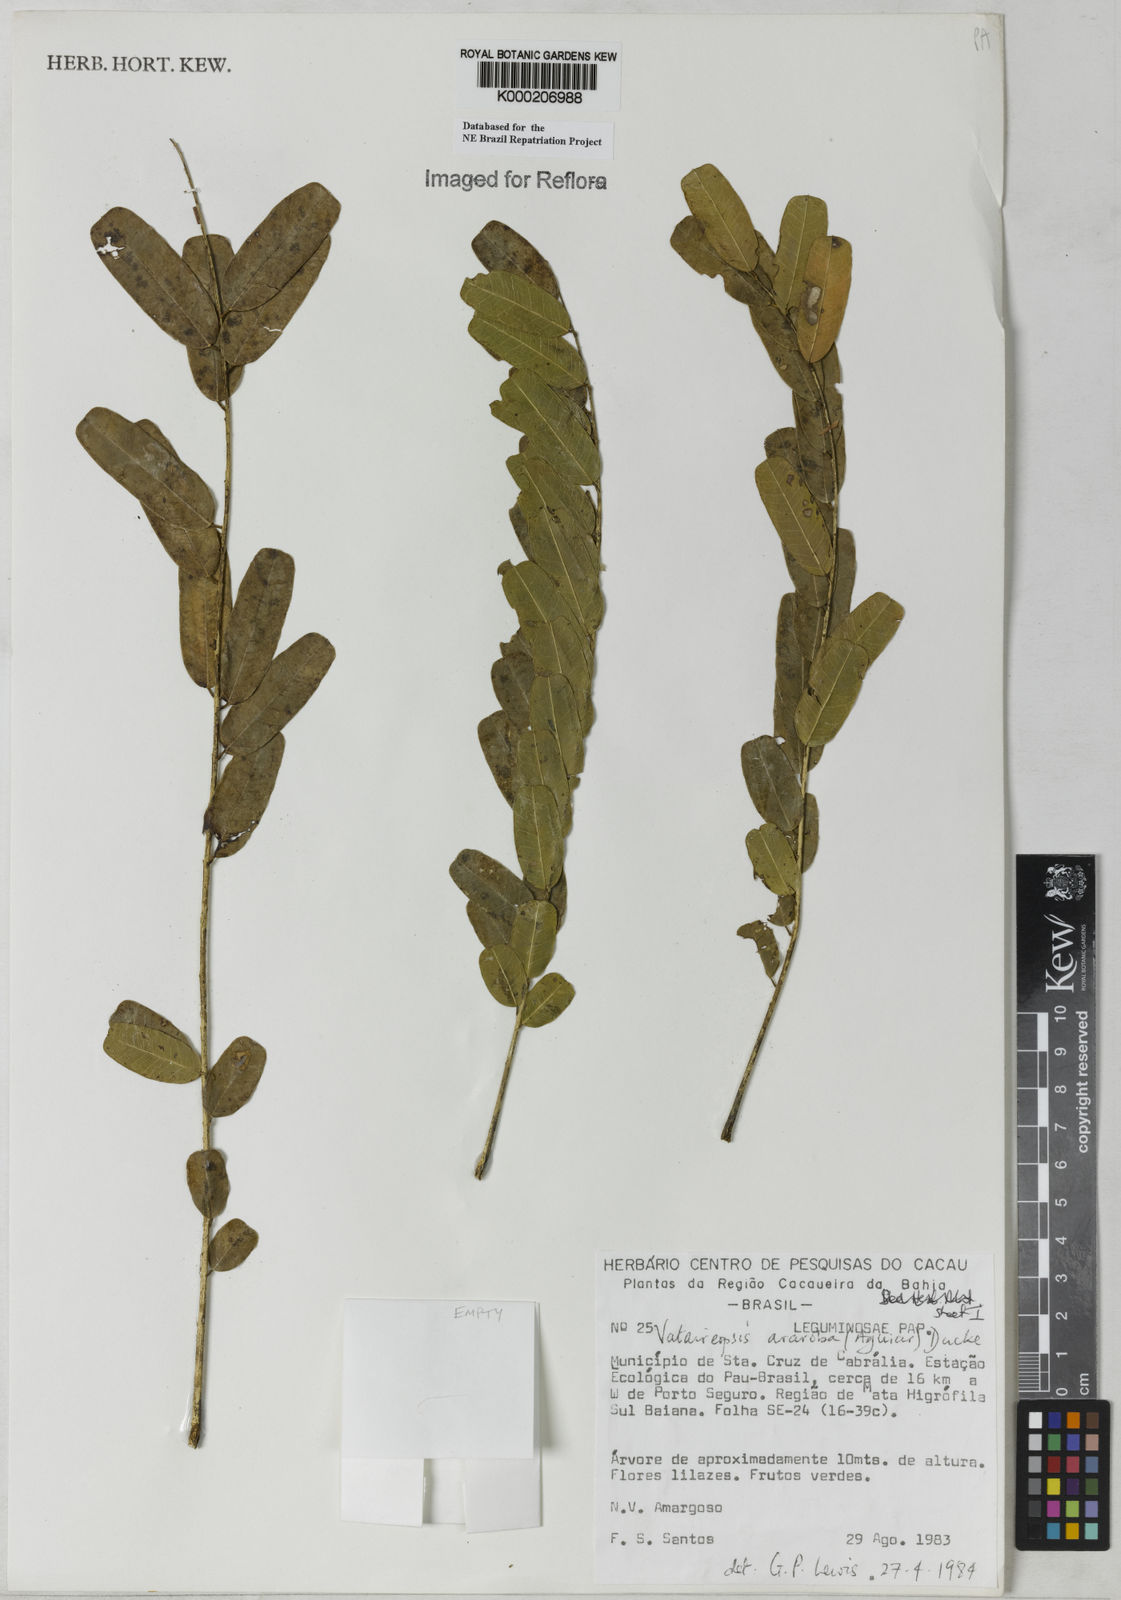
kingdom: Plantae
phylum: Tracheophyta
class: Magnoliopsida
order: Fabales
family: Fabaceae
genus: Vataireopsis
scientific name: Vataireopsis araroba
